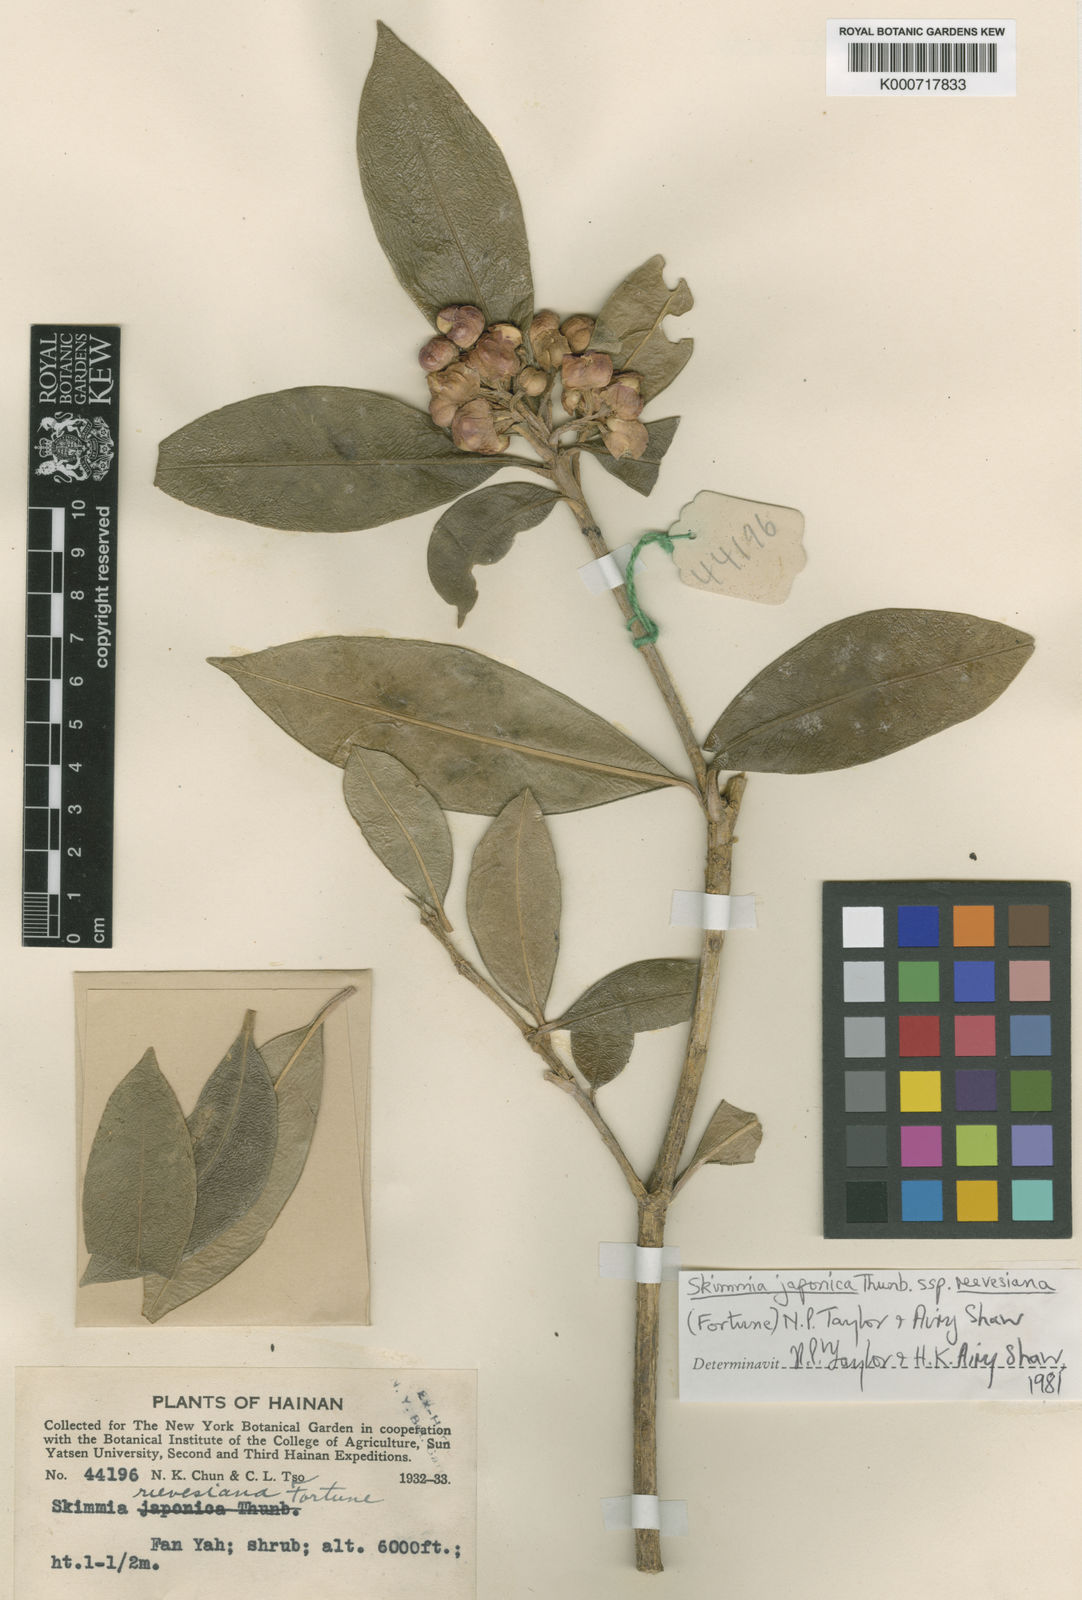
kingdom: Plantae
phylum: Tracheophyta
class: Magnoliopsida
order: Sapindales
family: Rutaceae
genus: Skimmia
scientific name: Skimmia reevesiana
